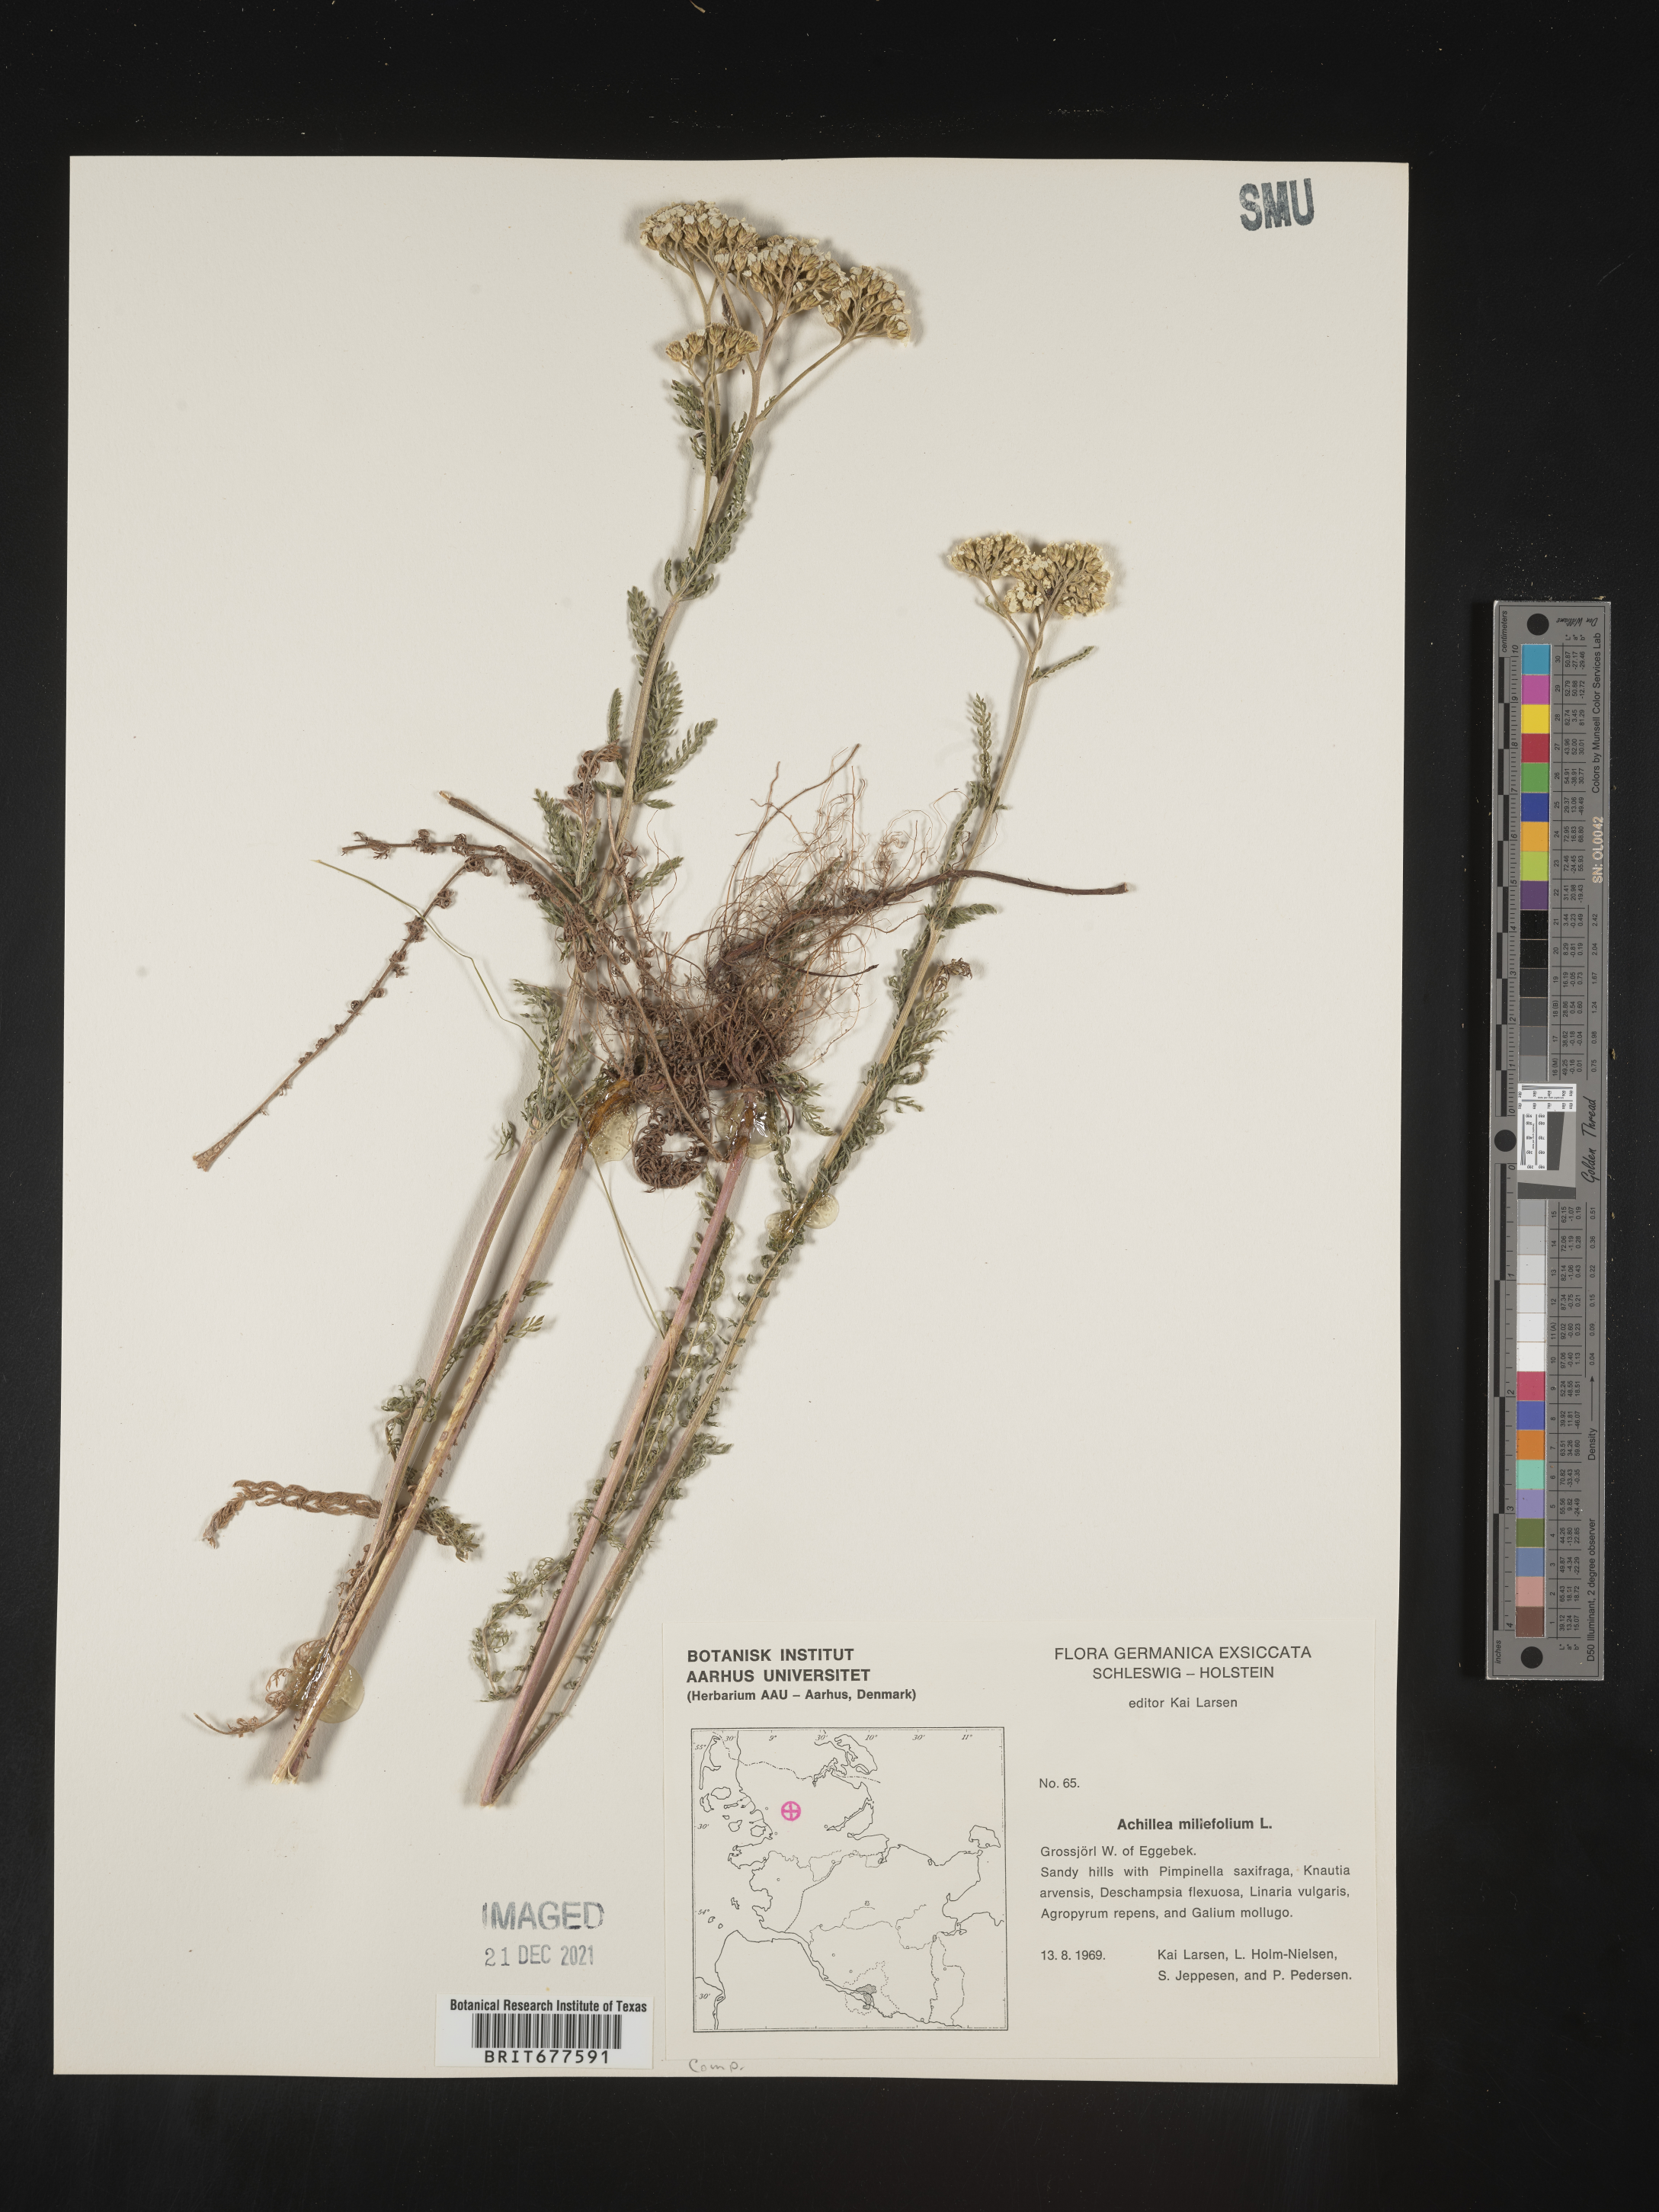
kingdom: Plantae
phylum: Tracheophyta
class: Magnoliopsida
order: Asterales
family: Asteraceae
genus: Achillea
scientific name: Achillea millefolium
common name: Yarrow
